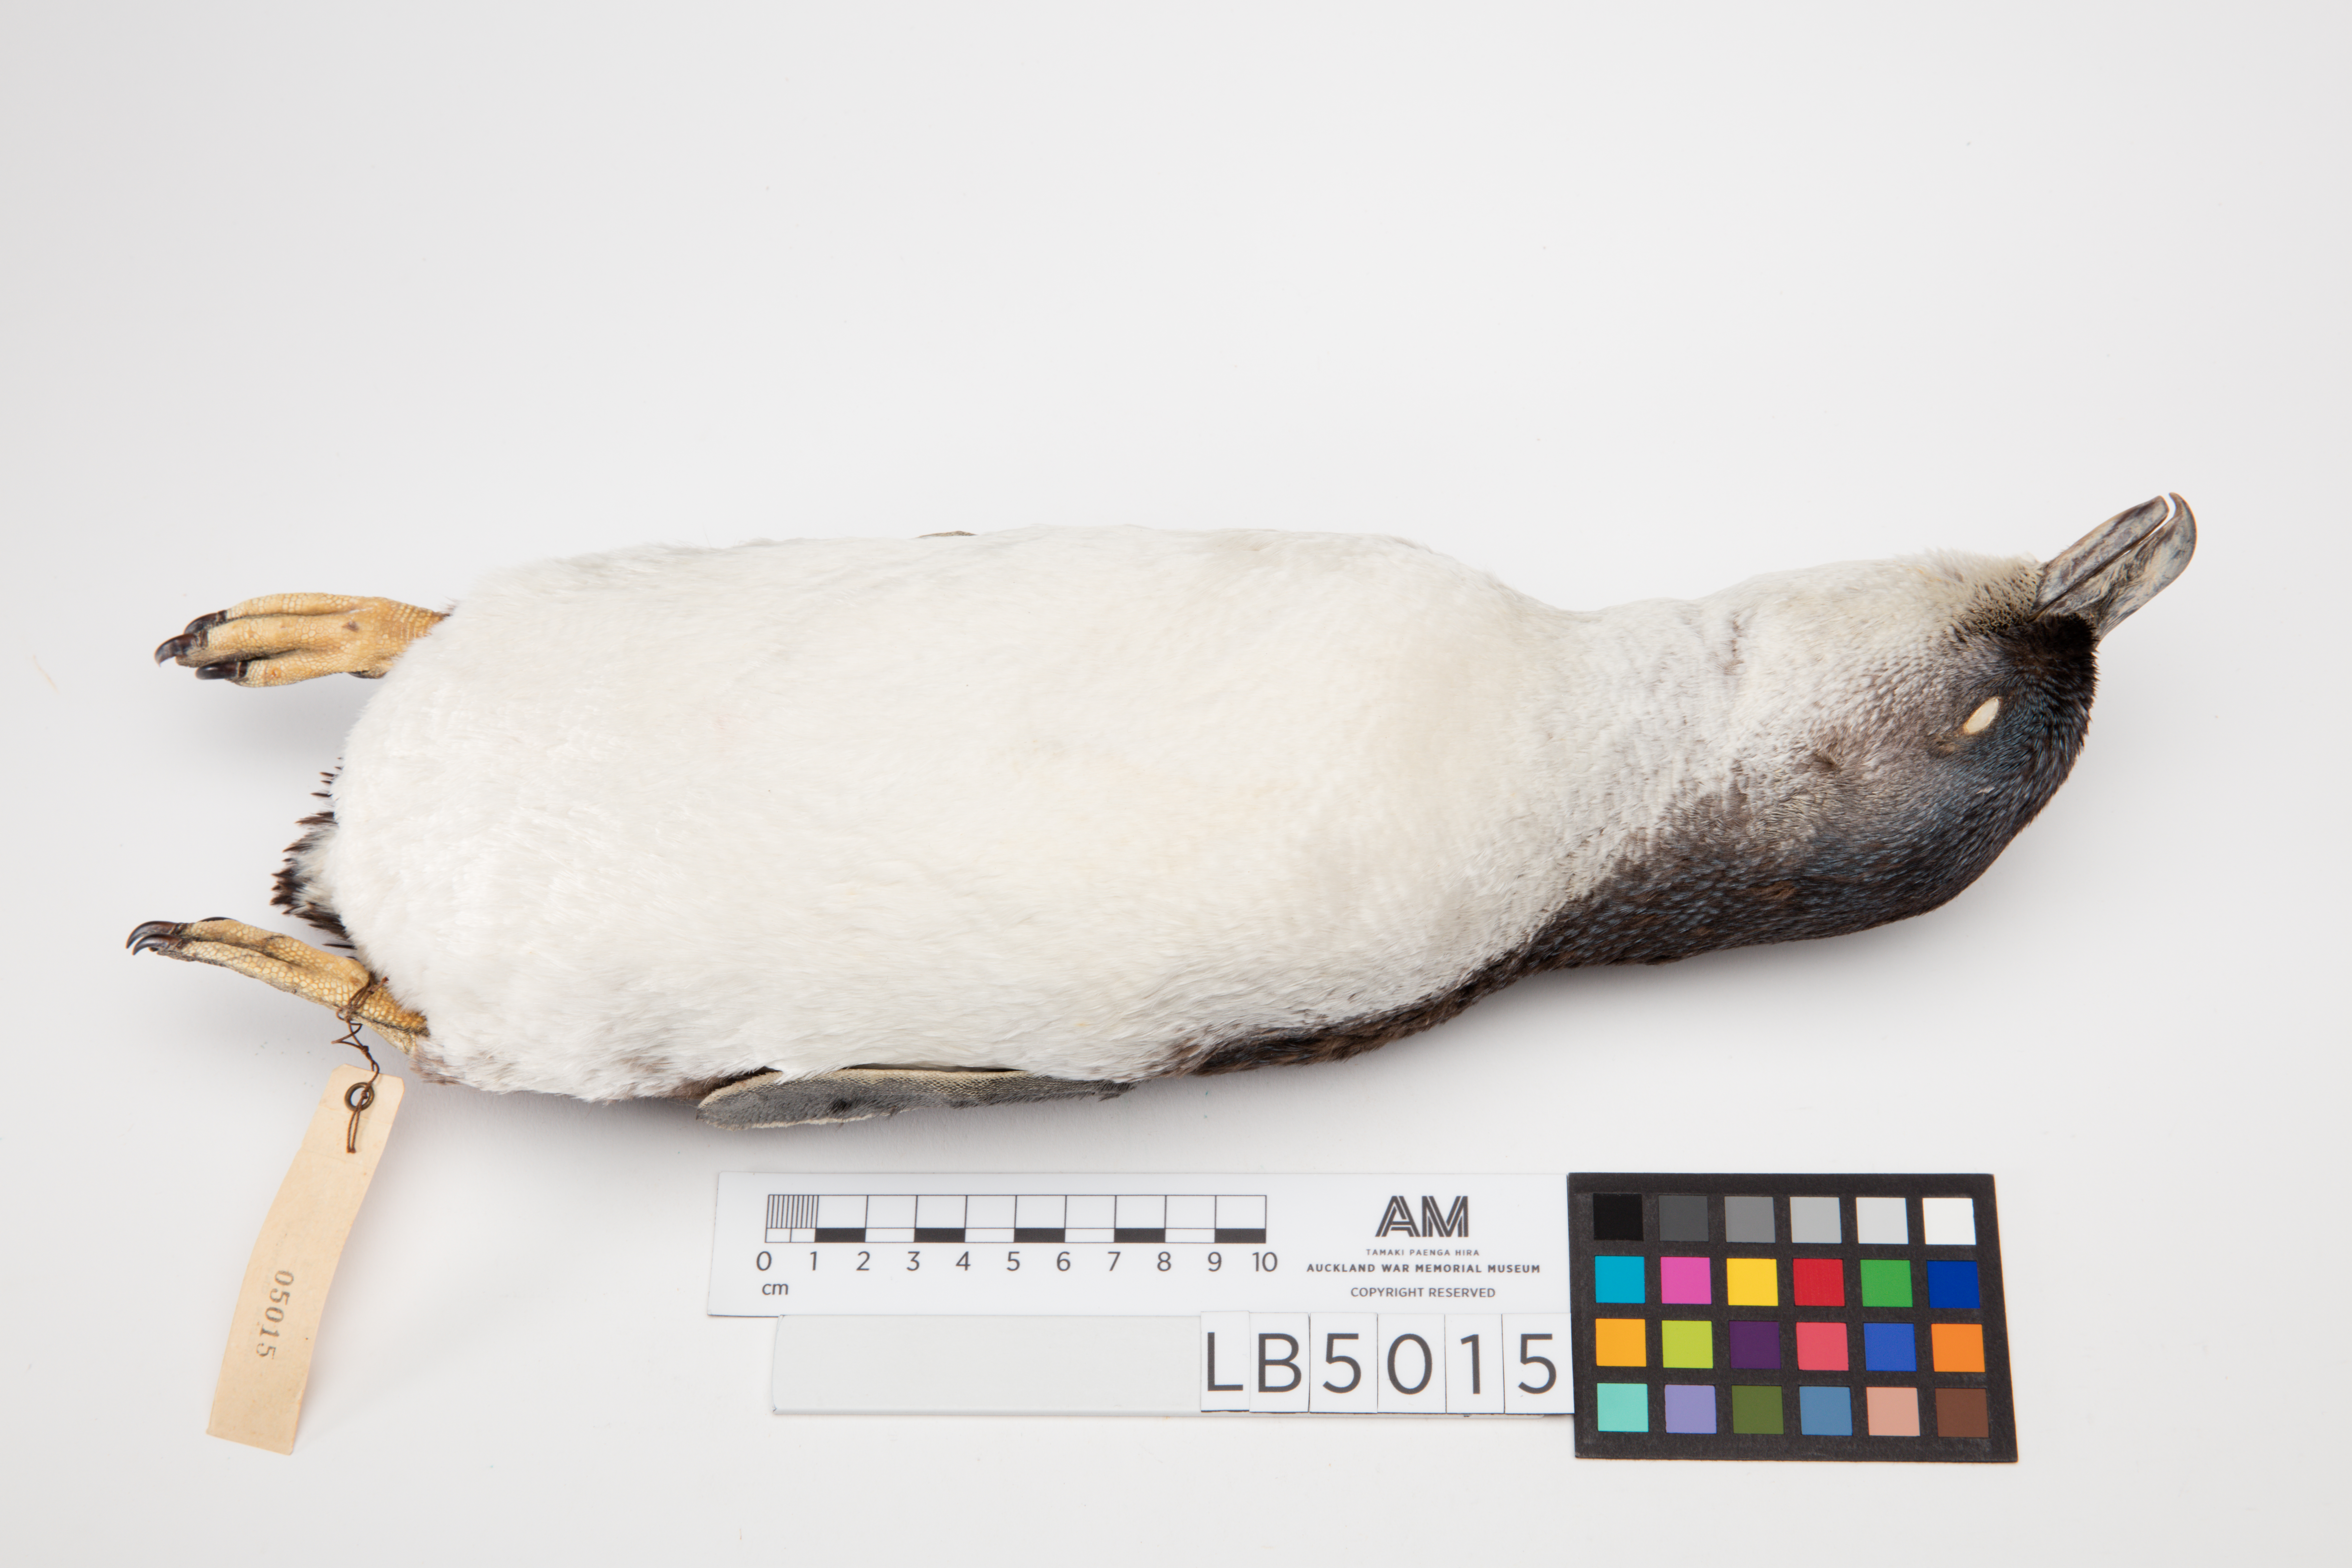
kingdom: Animalia
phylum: Chordata
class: Aves
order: Sphenisciformes
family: Spheniscidae
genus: Eudyptula
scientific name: Eudyptula minor
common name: Little penguin
